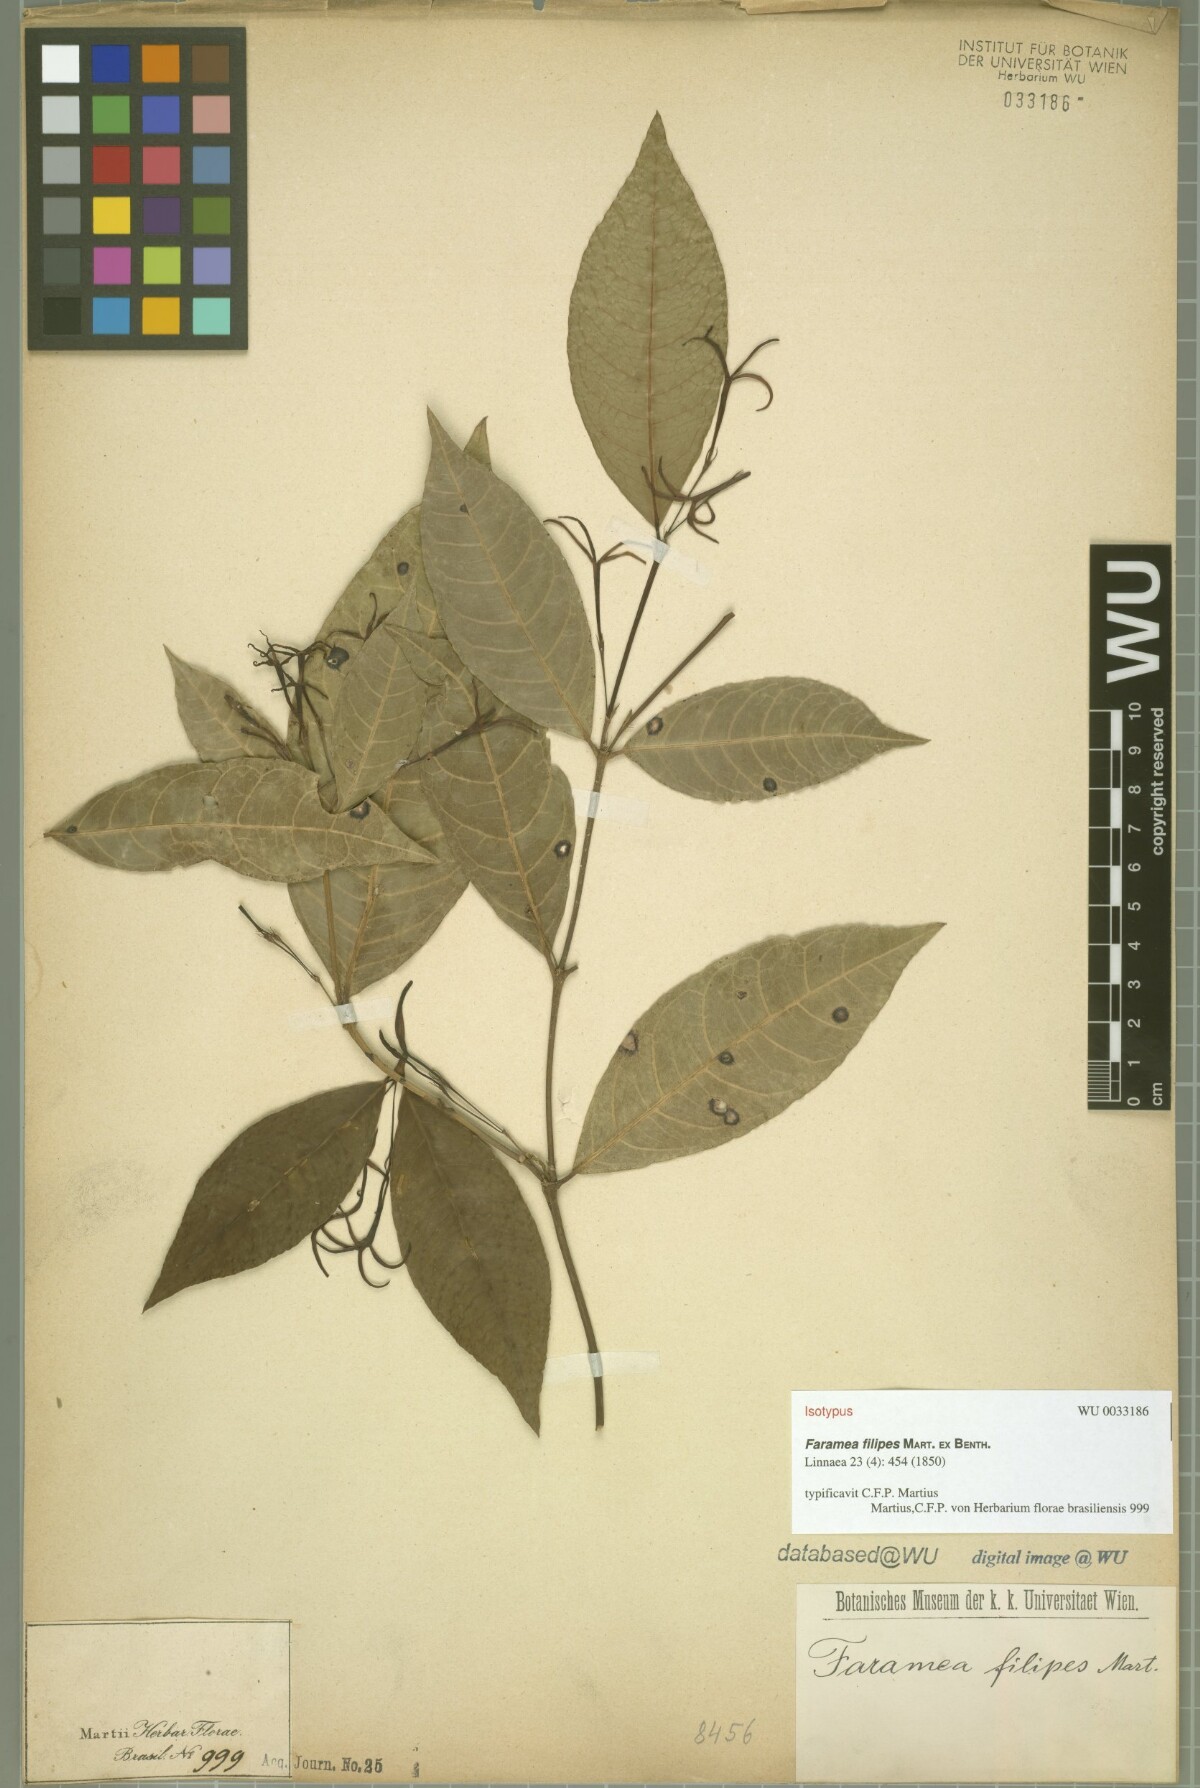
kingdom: Plantae
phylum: Tracheophyta
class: Magnoliopsida
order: Gentianales
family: Rubiaceae
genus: Faramea
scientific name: Faramea coerulea
